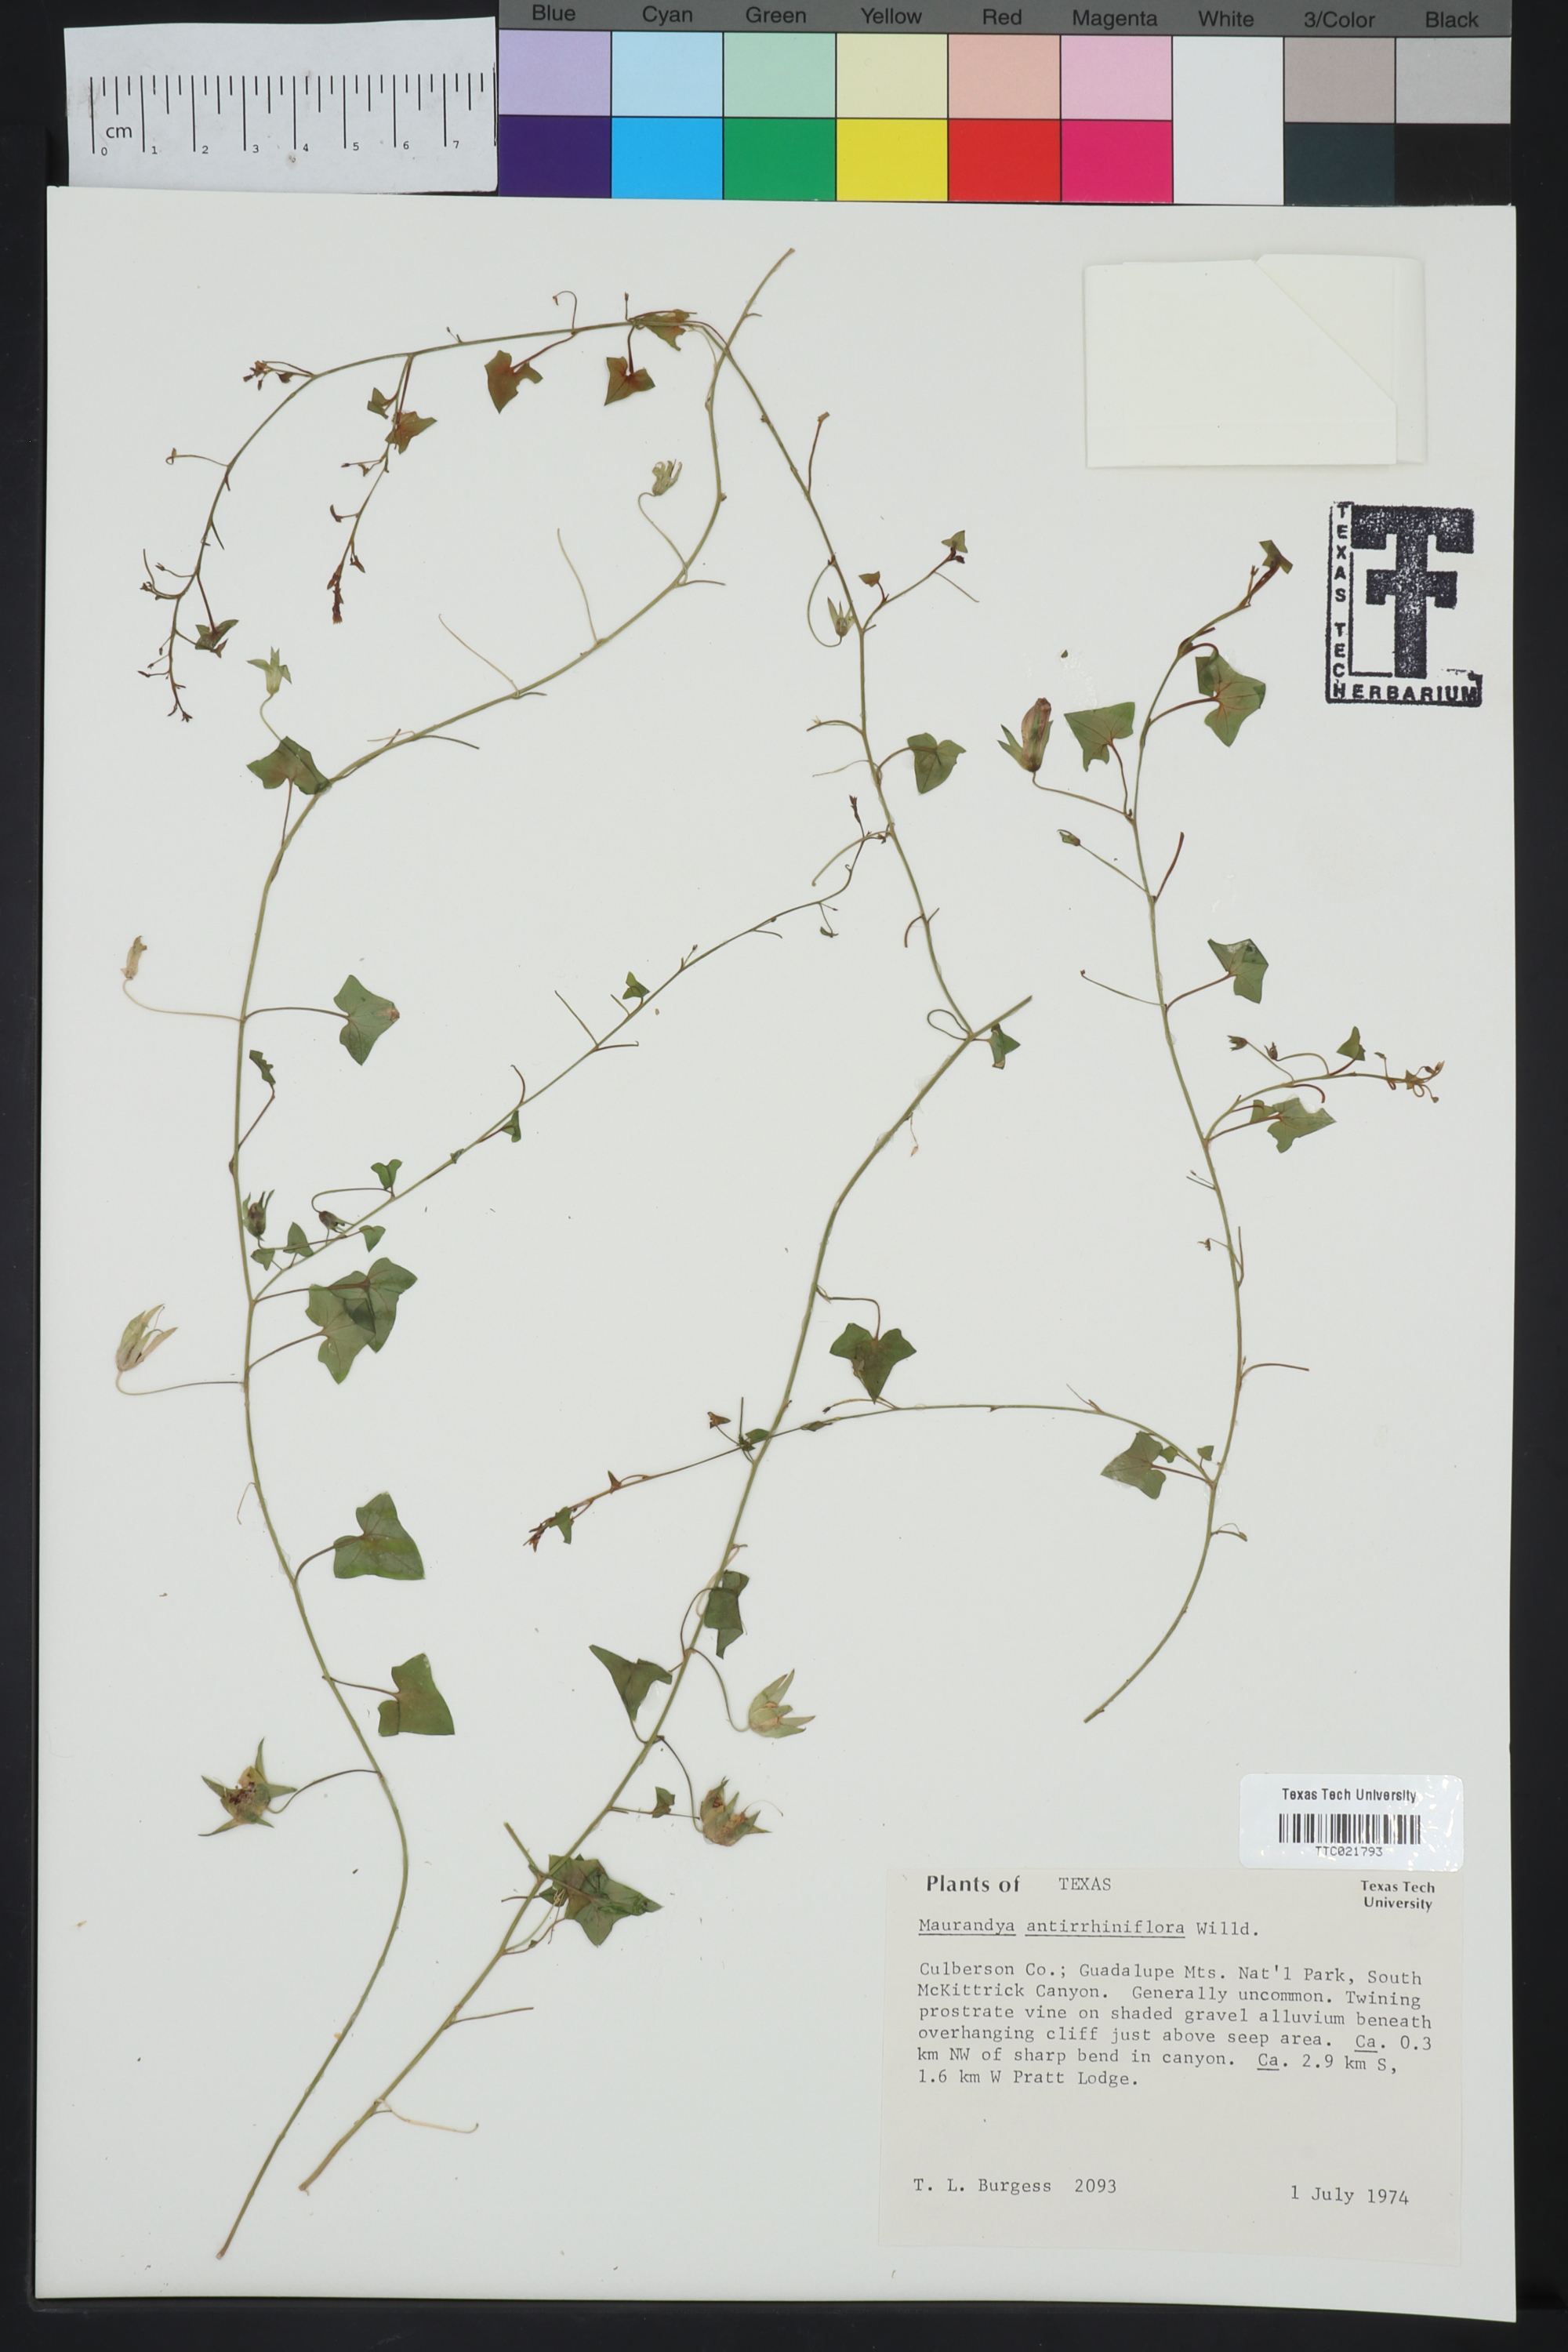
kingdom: Plantae
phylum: Tracheophyta
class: Magnoliopsida
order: Lamiales
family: Plantaginaceae
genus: Maurandella
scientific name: Maurandella antirrhiniflora
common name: Violet twining-snapdragon
